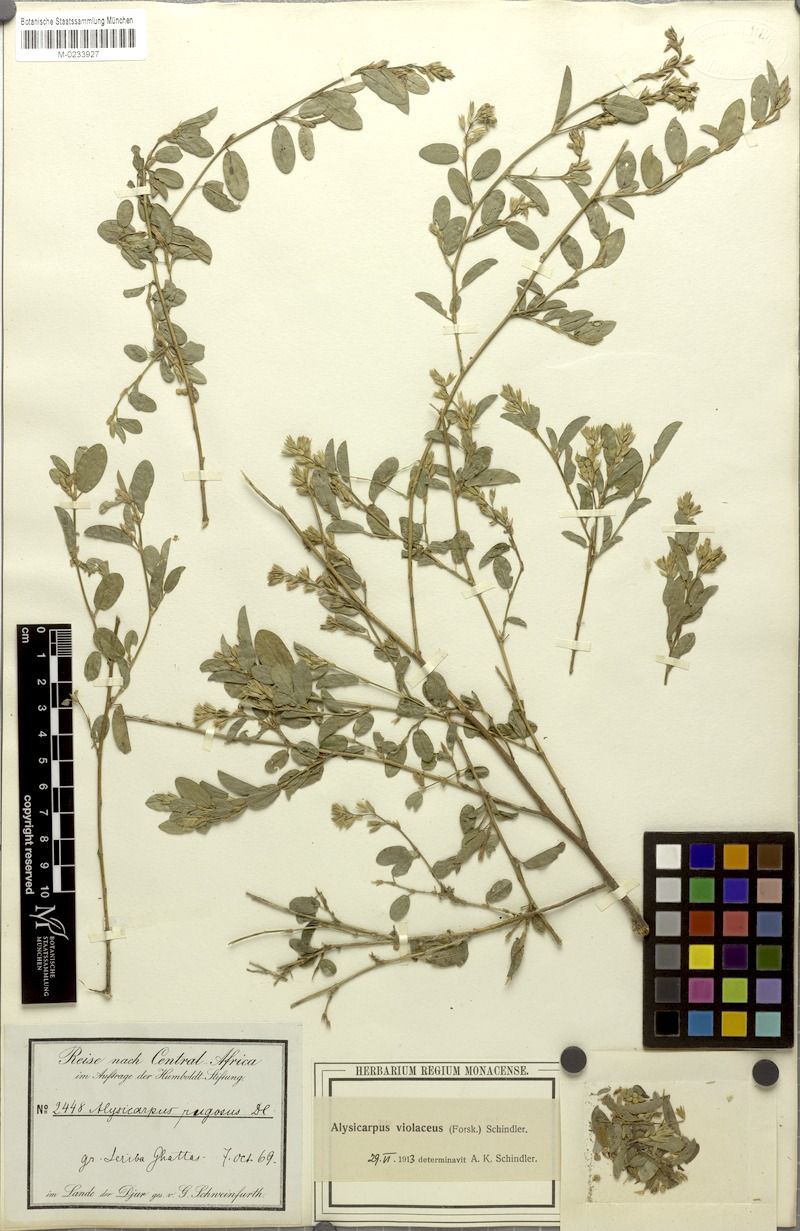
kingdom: Plantae
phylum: Tracheophyta
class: Magnoliopsida
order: Fabales
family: Fabaceae
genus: Alysicarpus
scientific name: Alysicarpus rugosus
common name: Red moneywort
